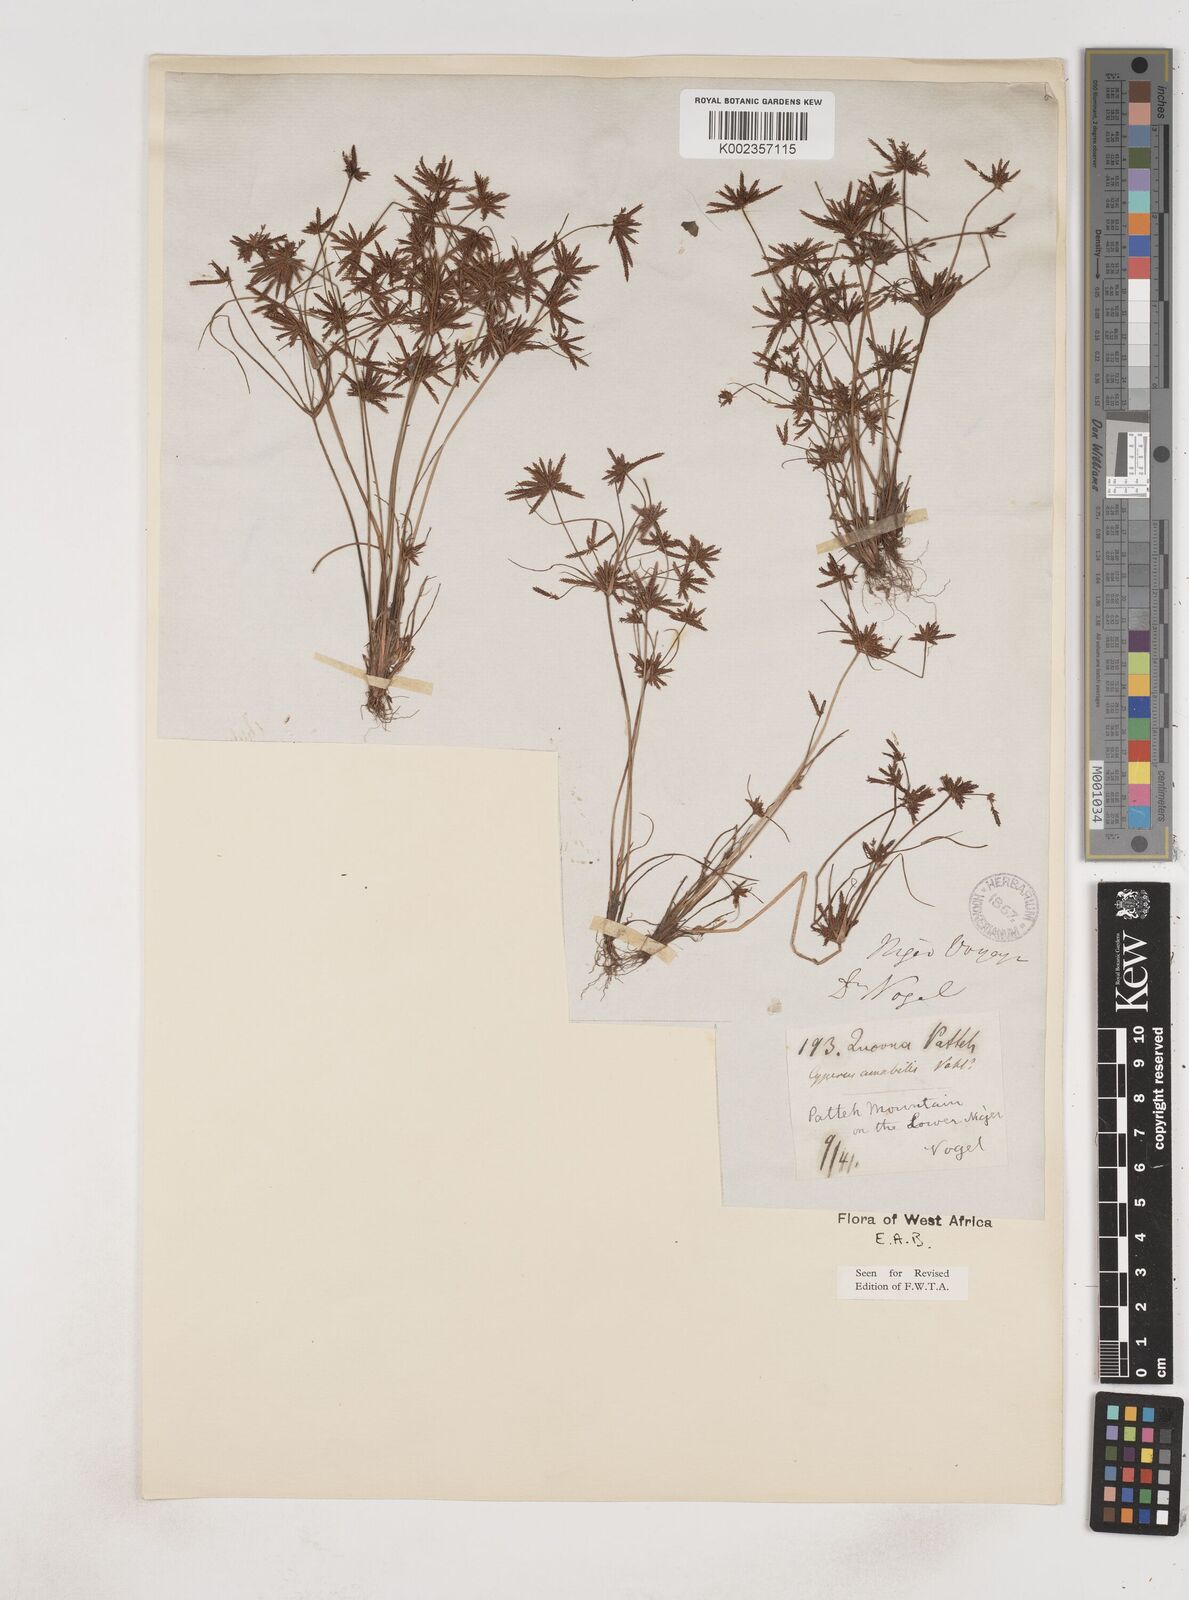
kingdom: Plantae
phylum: Tracheophyta
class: Liliopsida
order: Poales
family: Cyperaceae
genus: Cyperus
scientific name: Cyperus amabilis
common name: Foothill flat sedge
